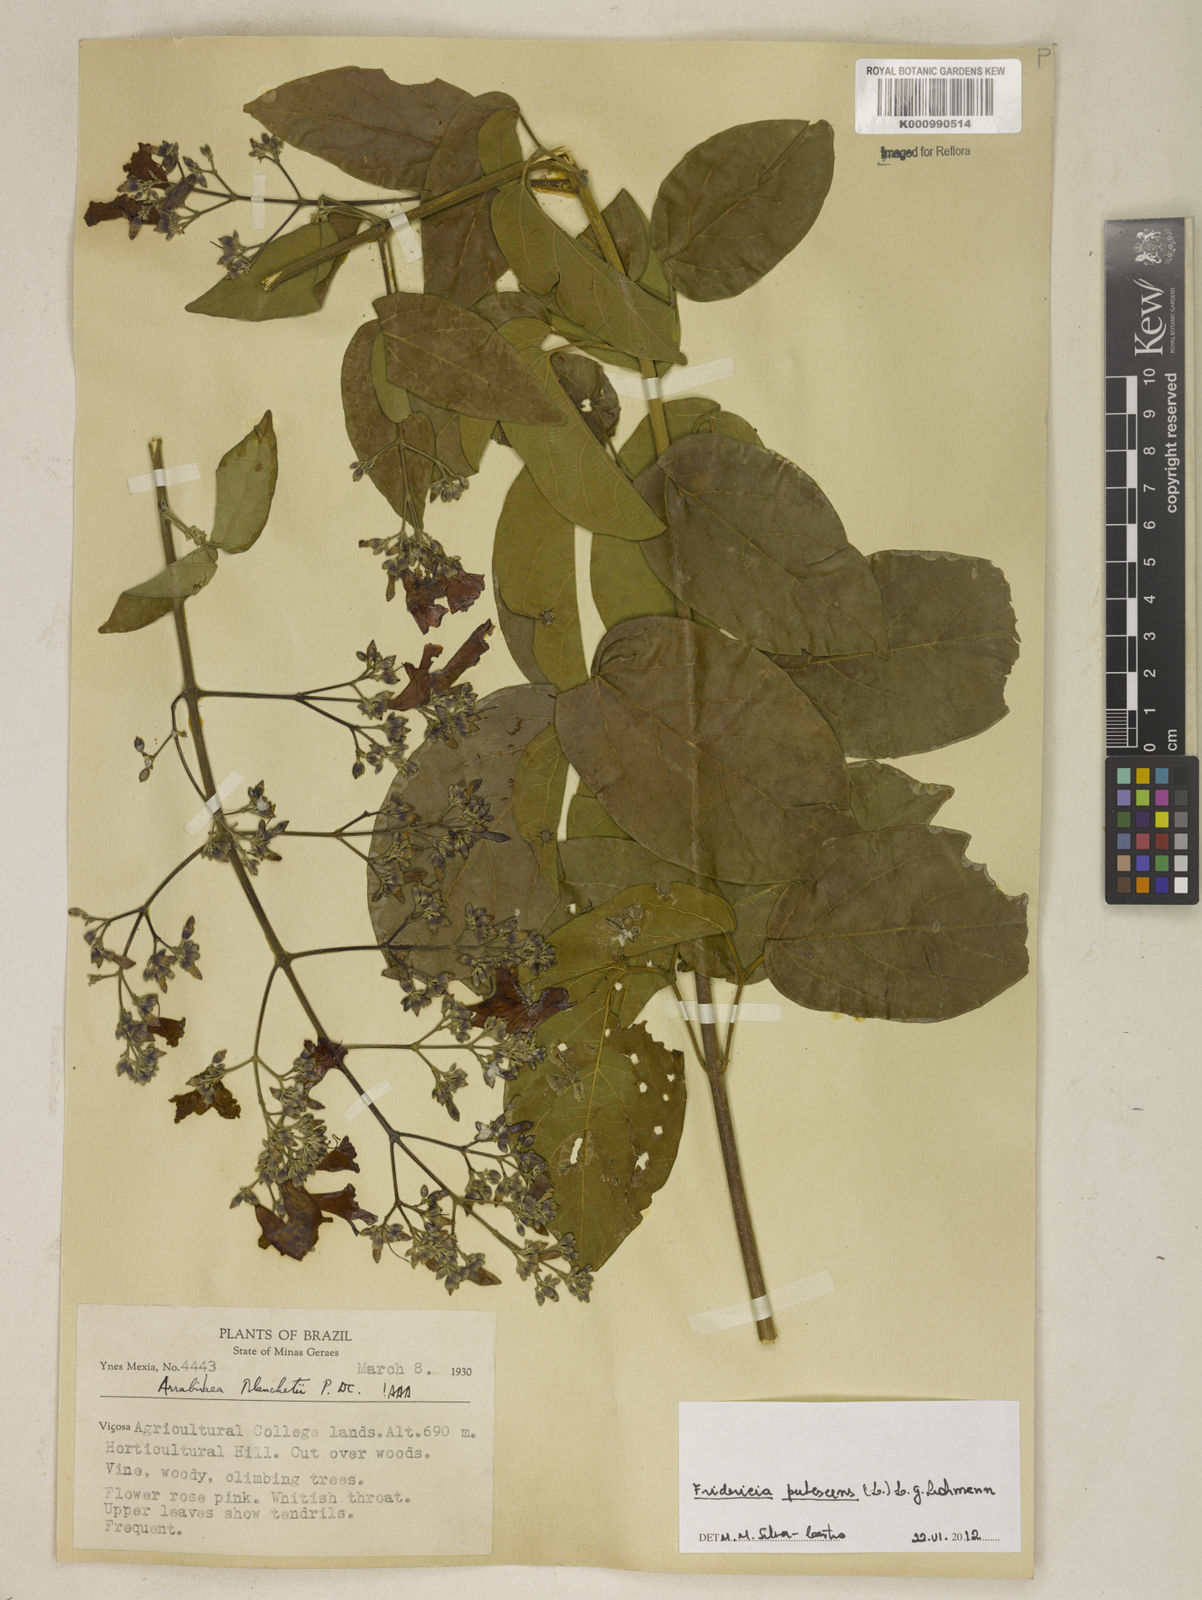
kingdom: Plantae
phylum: Tracheophyta
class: Magnoliopsida
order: Lamiales
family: Bignoniaceae
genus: Fridericia
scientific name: Fridericia pubescens
